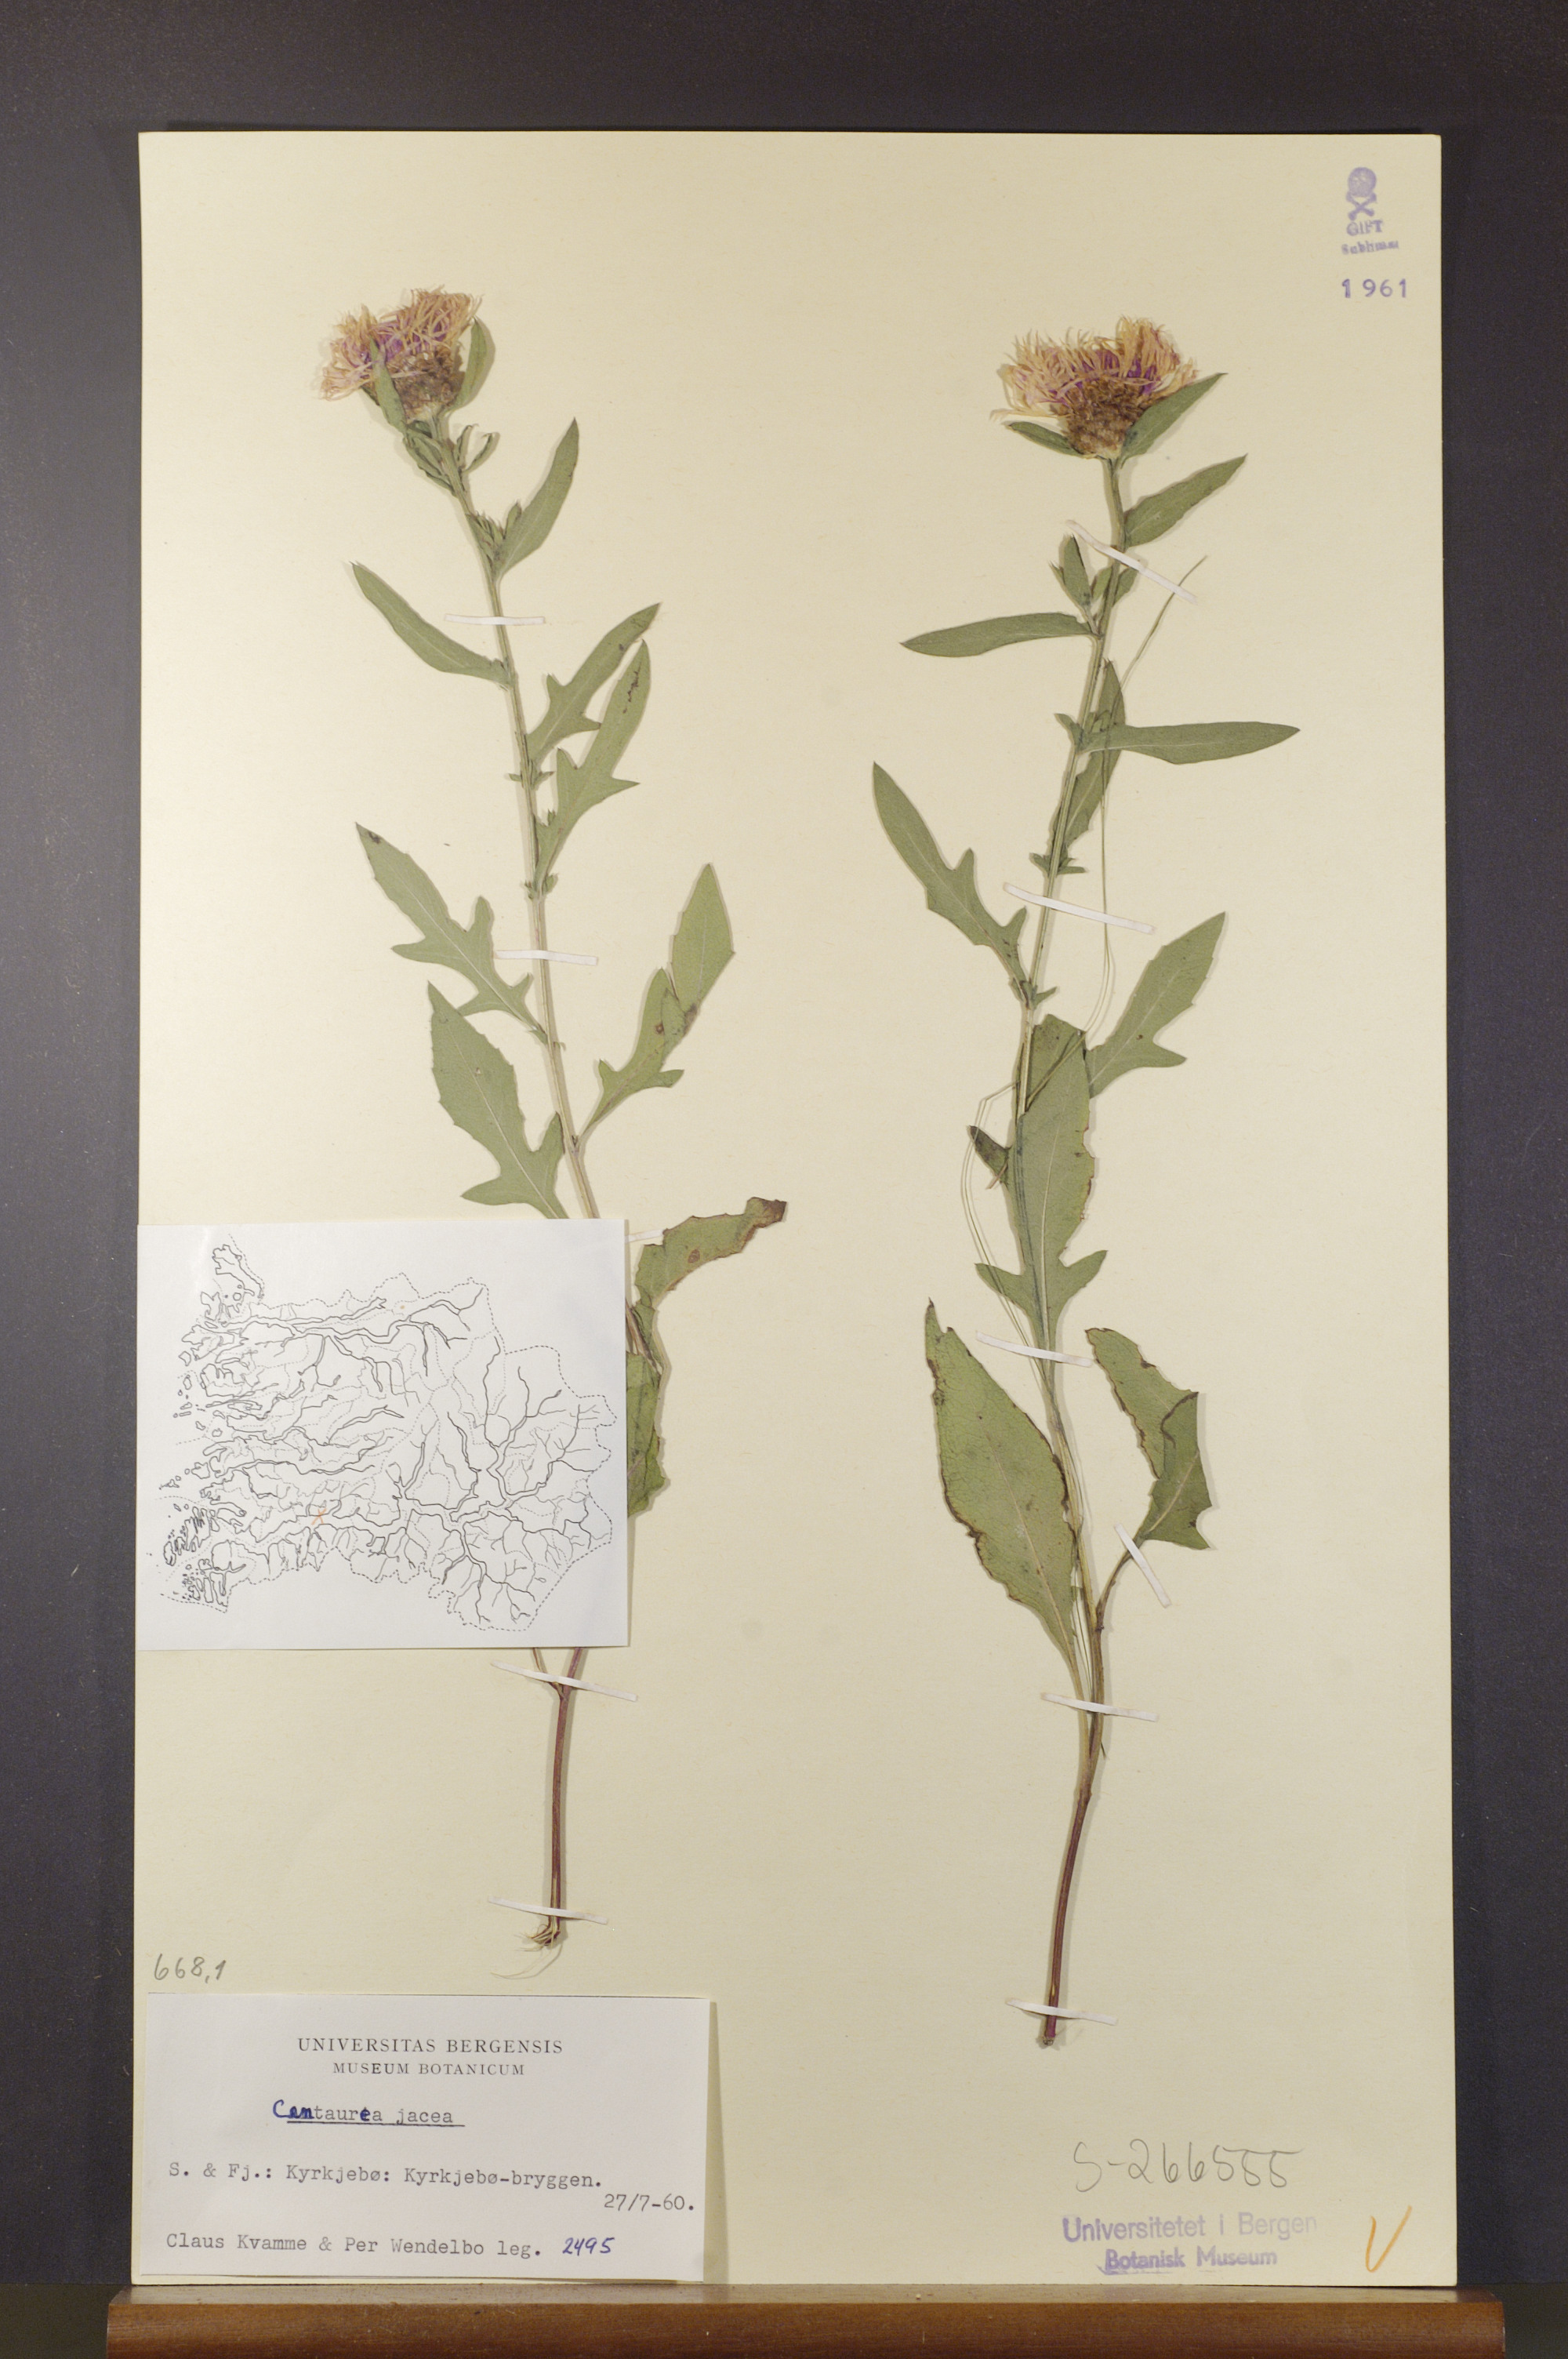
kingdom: Plantae
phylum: Tracheophyta
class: Magnoliopsida
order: Asterales
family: Asteraceae
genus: Centaurea
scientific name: Centaurea jacea
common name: Brown knapweed
